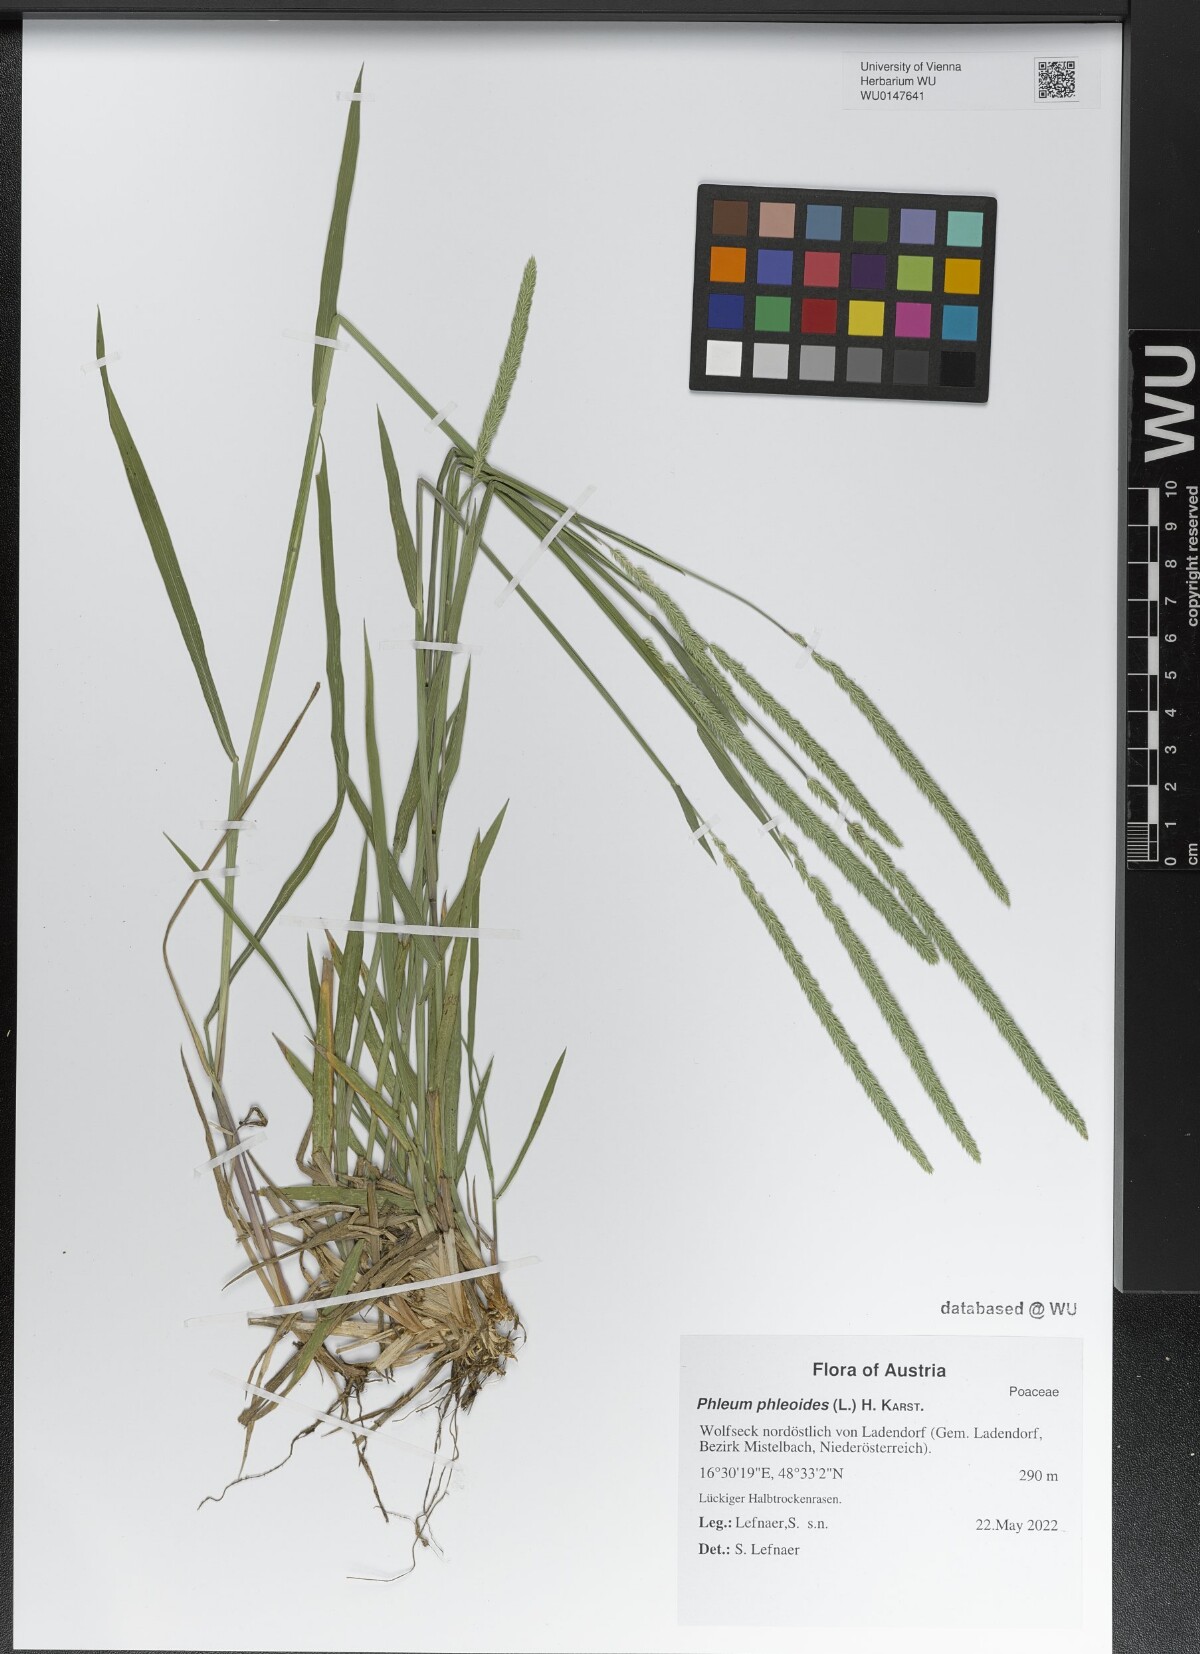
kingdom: Plantae
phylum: Tracheophyta
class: Liliopsida
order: Poales
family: Poaceae
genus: Phleum
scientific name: Phleum phleoides
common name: Purple-stem cat's-tail
